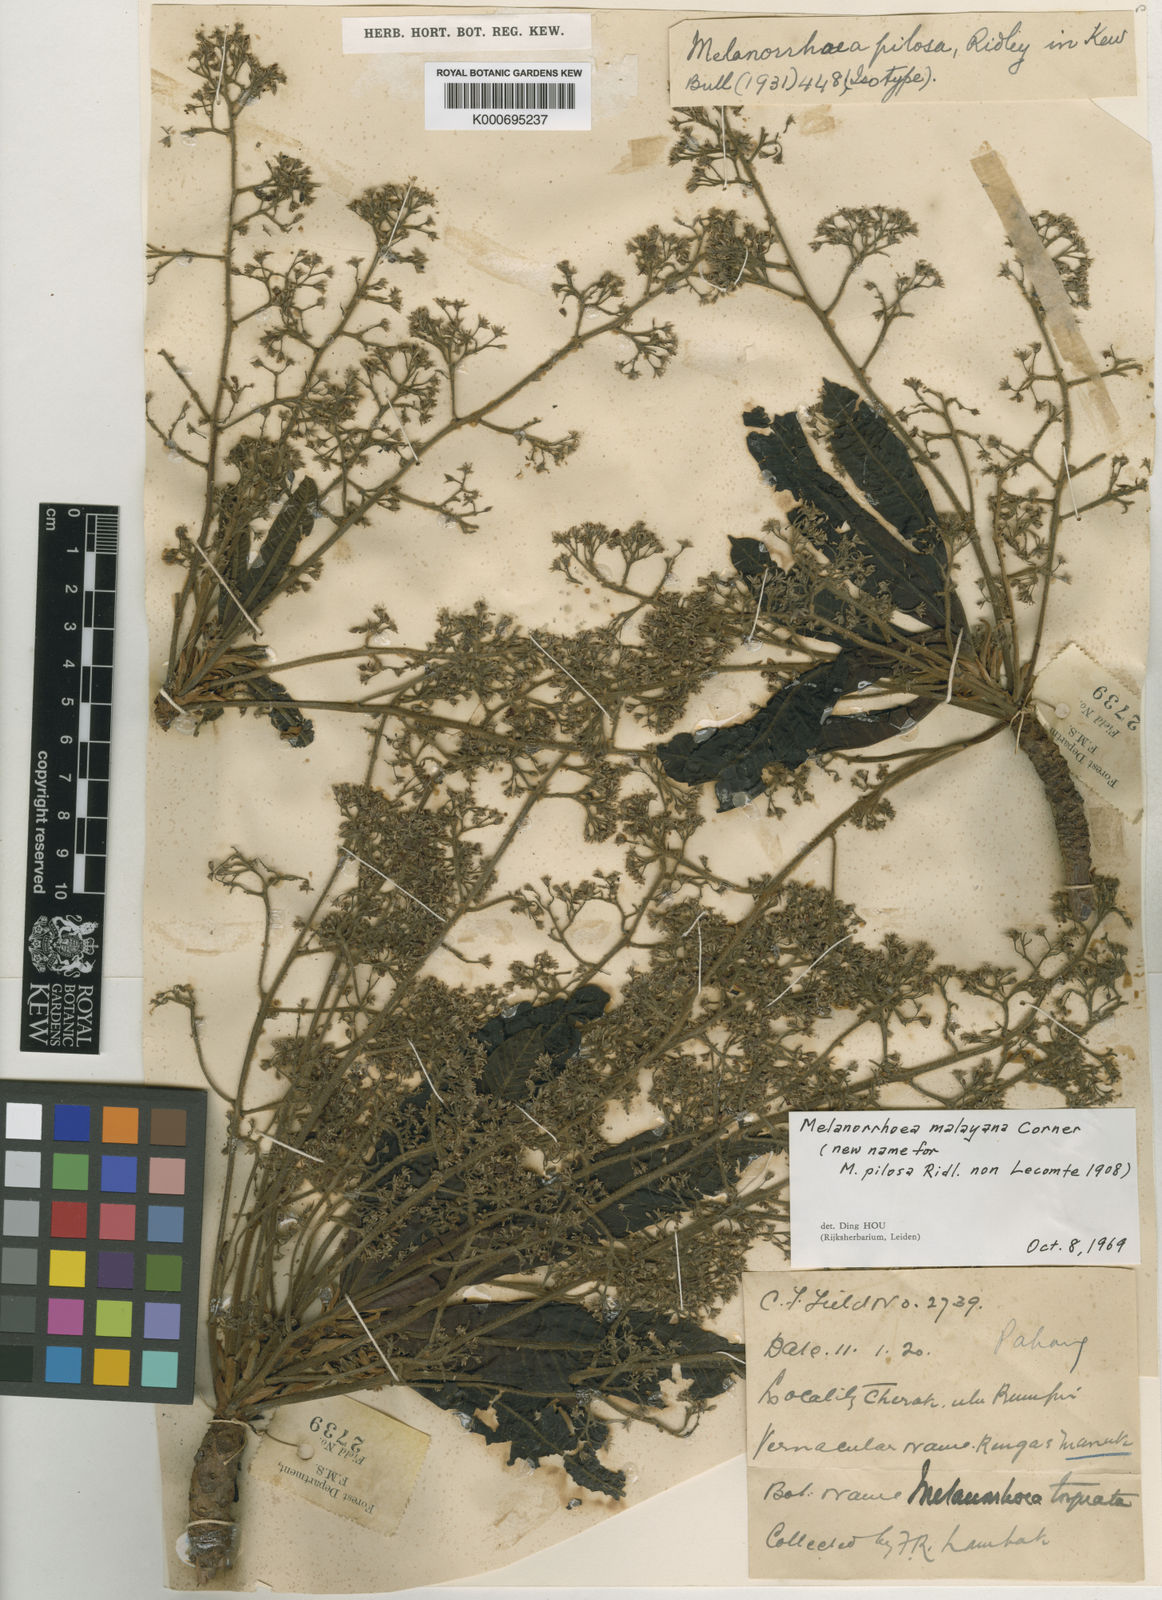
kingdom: Plantae
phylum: Tracheophyta
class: Magnoliopsida
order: Sapindales
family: Anacardiaceae
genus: Gluta
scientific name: Gluta torquata
